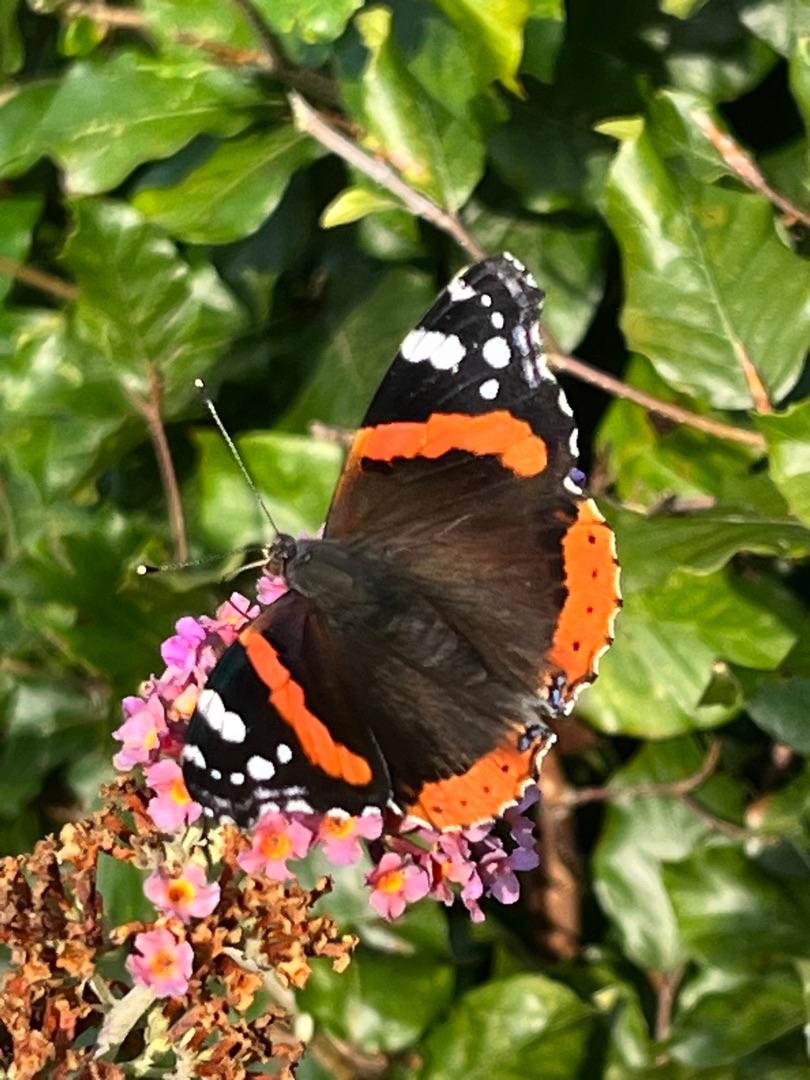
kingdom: Animalia
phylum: Arthropoda
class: Insecta
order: Lepidoptera
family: Nymphalidae
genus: Vanessa
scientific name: Vanessa atalanta
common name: Admiral
